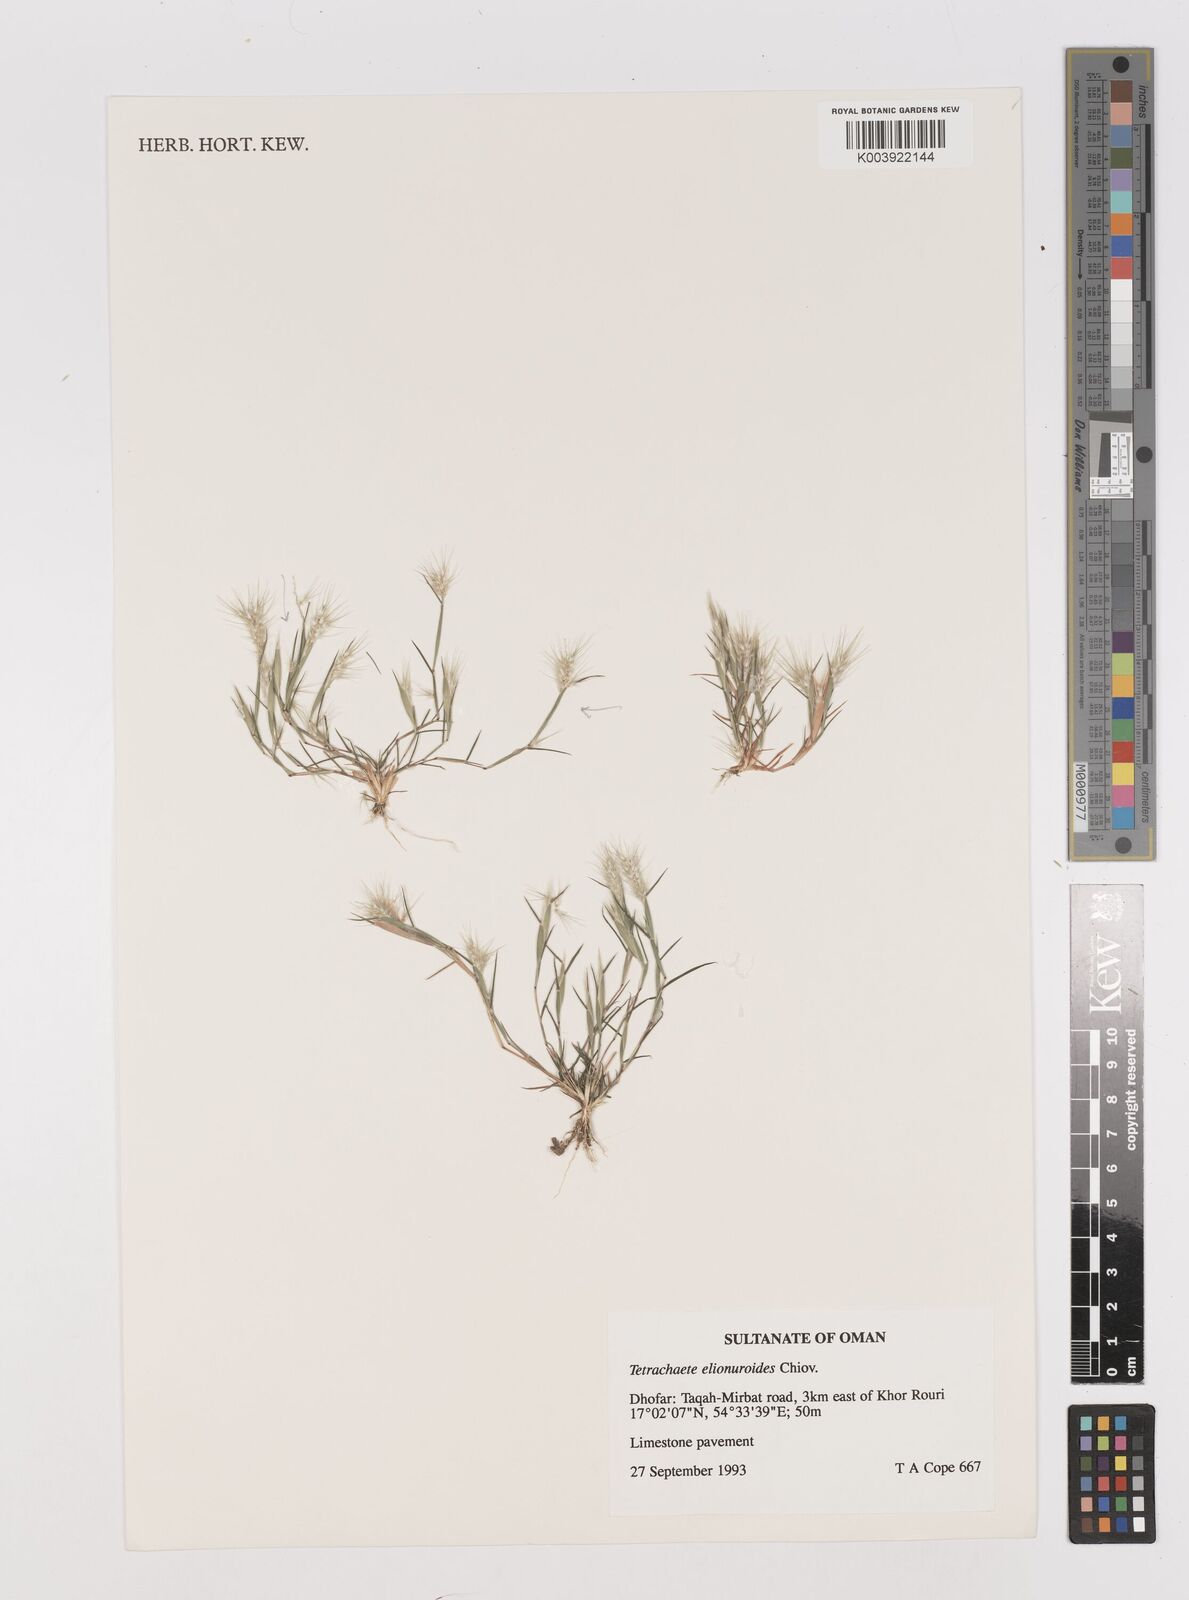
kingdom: Plantae
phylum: Tracheophyta
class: Liliopsida
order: Poales
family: Poaceae
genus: Tetrachaete
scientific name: Tetrachaete elionuroides
